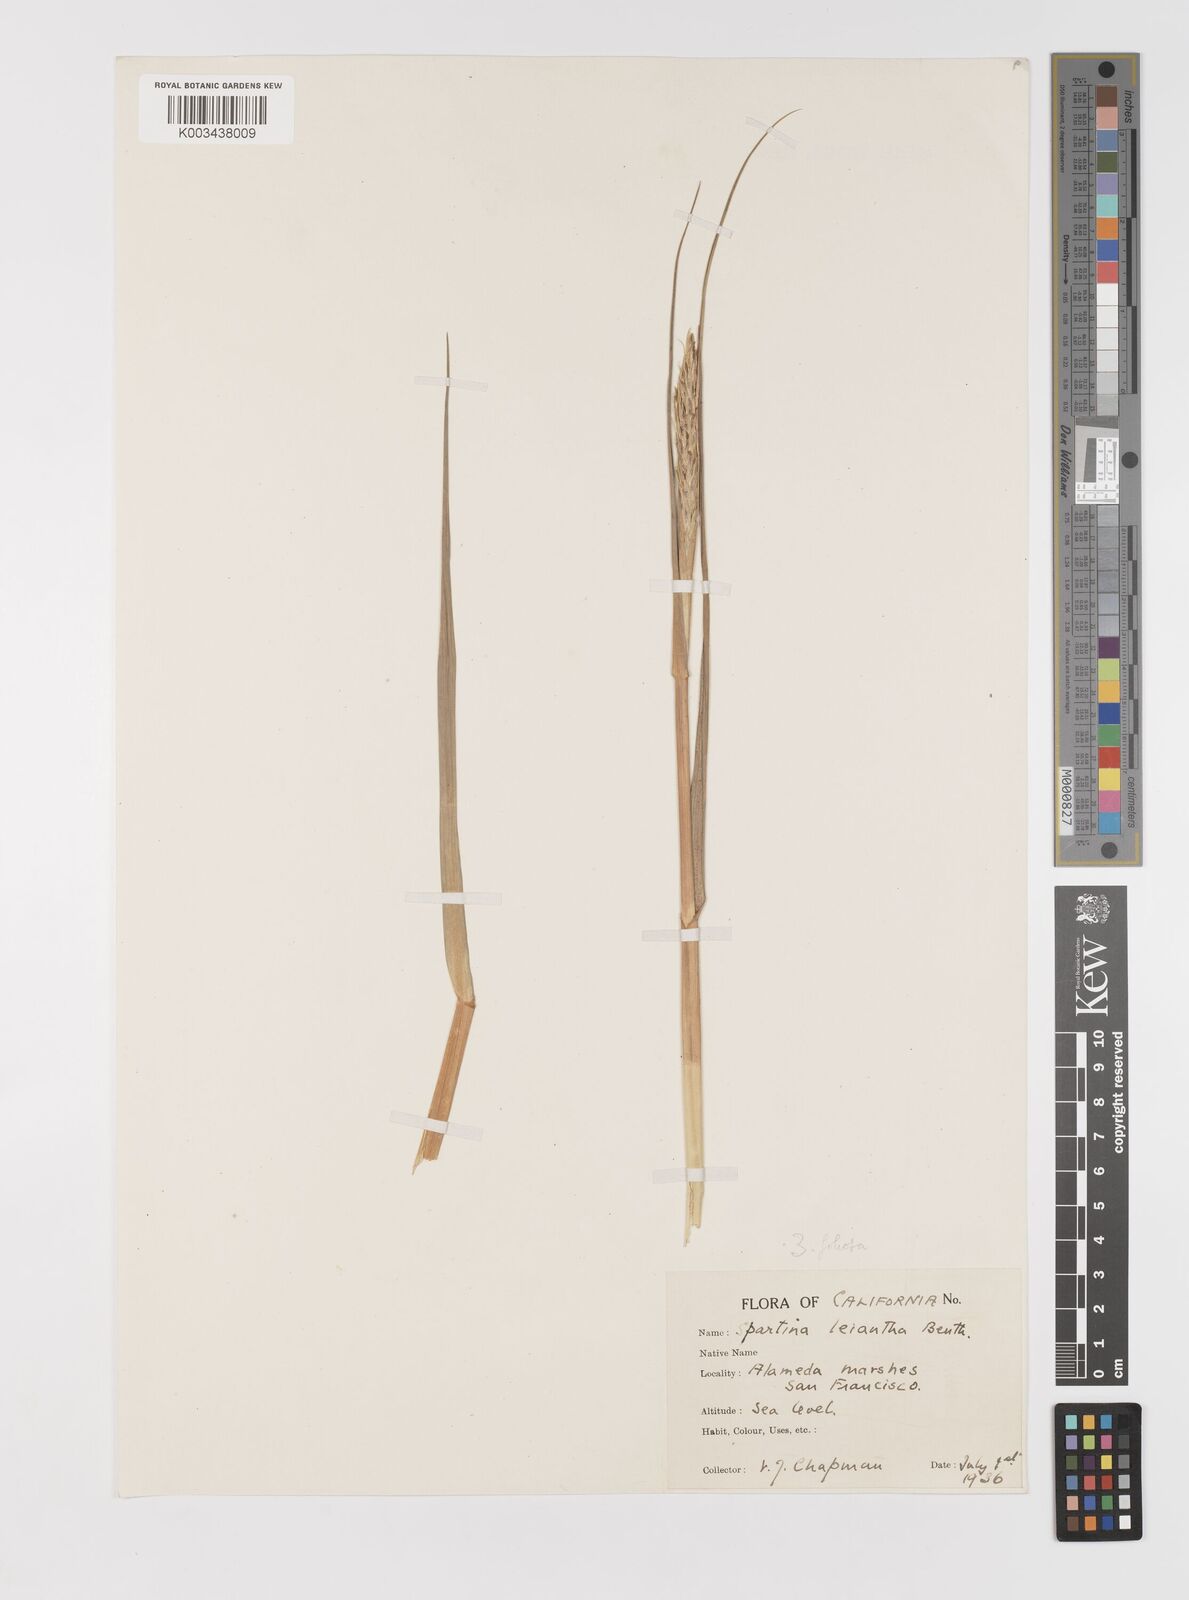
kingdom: Plantae
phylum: Tracheophyta
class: Liliopsida
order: Poales
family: Poaceae
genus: Sporobolus
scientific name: Sporobolus foliosus
